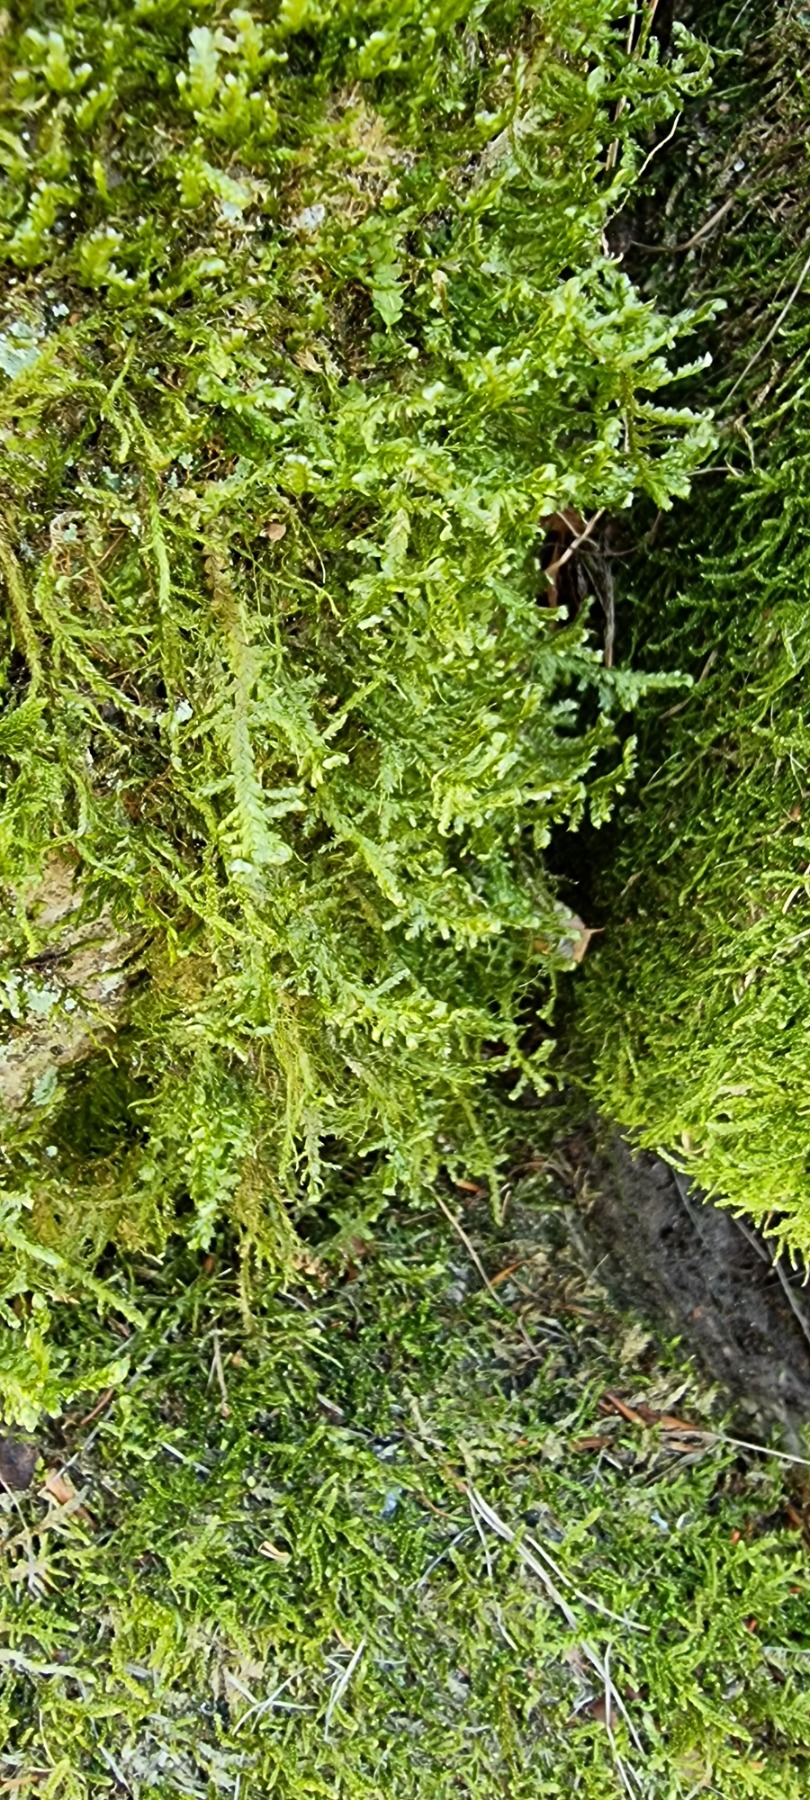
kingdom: Plantae
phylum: Bryophyta
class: Bryopsida
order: Hypnales
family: Neckeraceae
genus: Alleniella
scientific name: Alleniella complanata
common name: Almindelig fladmos
